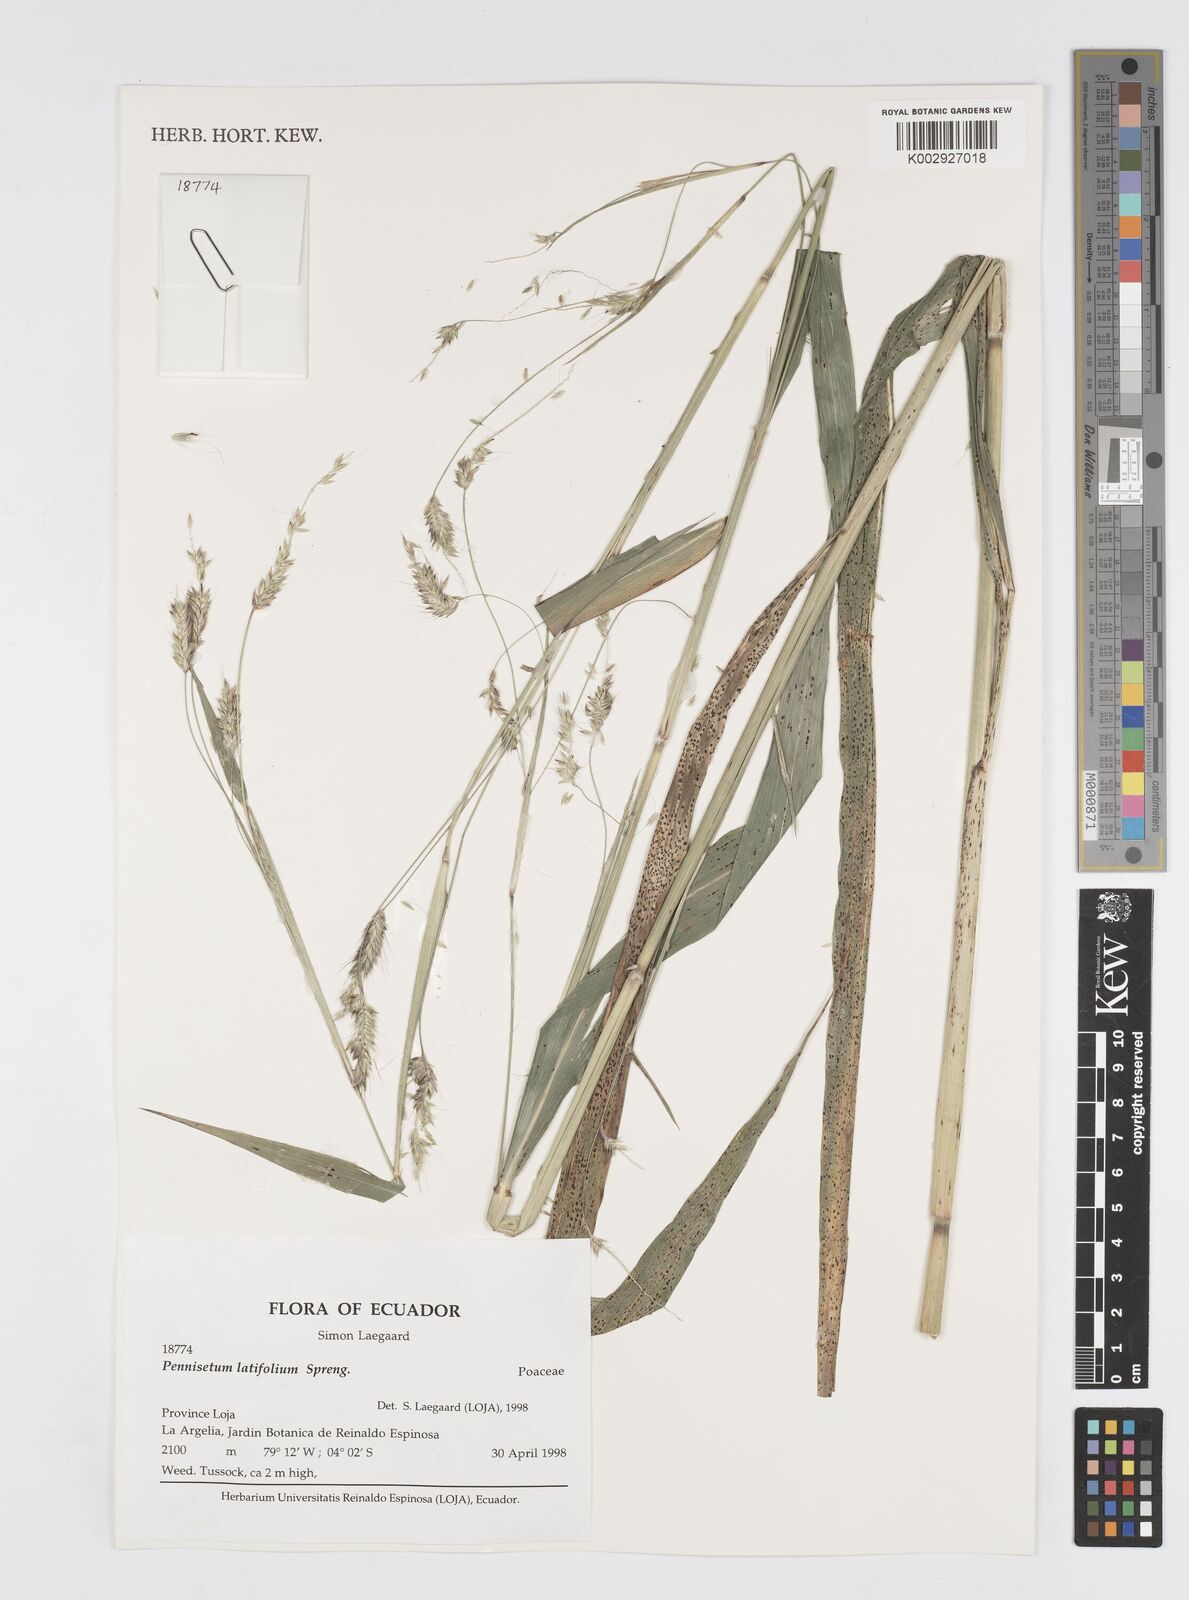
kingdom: Plantae
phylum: Tracheophyta
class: Liliopsida
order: Poales
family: Poaceae
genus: Cenchrus
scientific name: Cenchrus latifolius
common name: Sandbur
